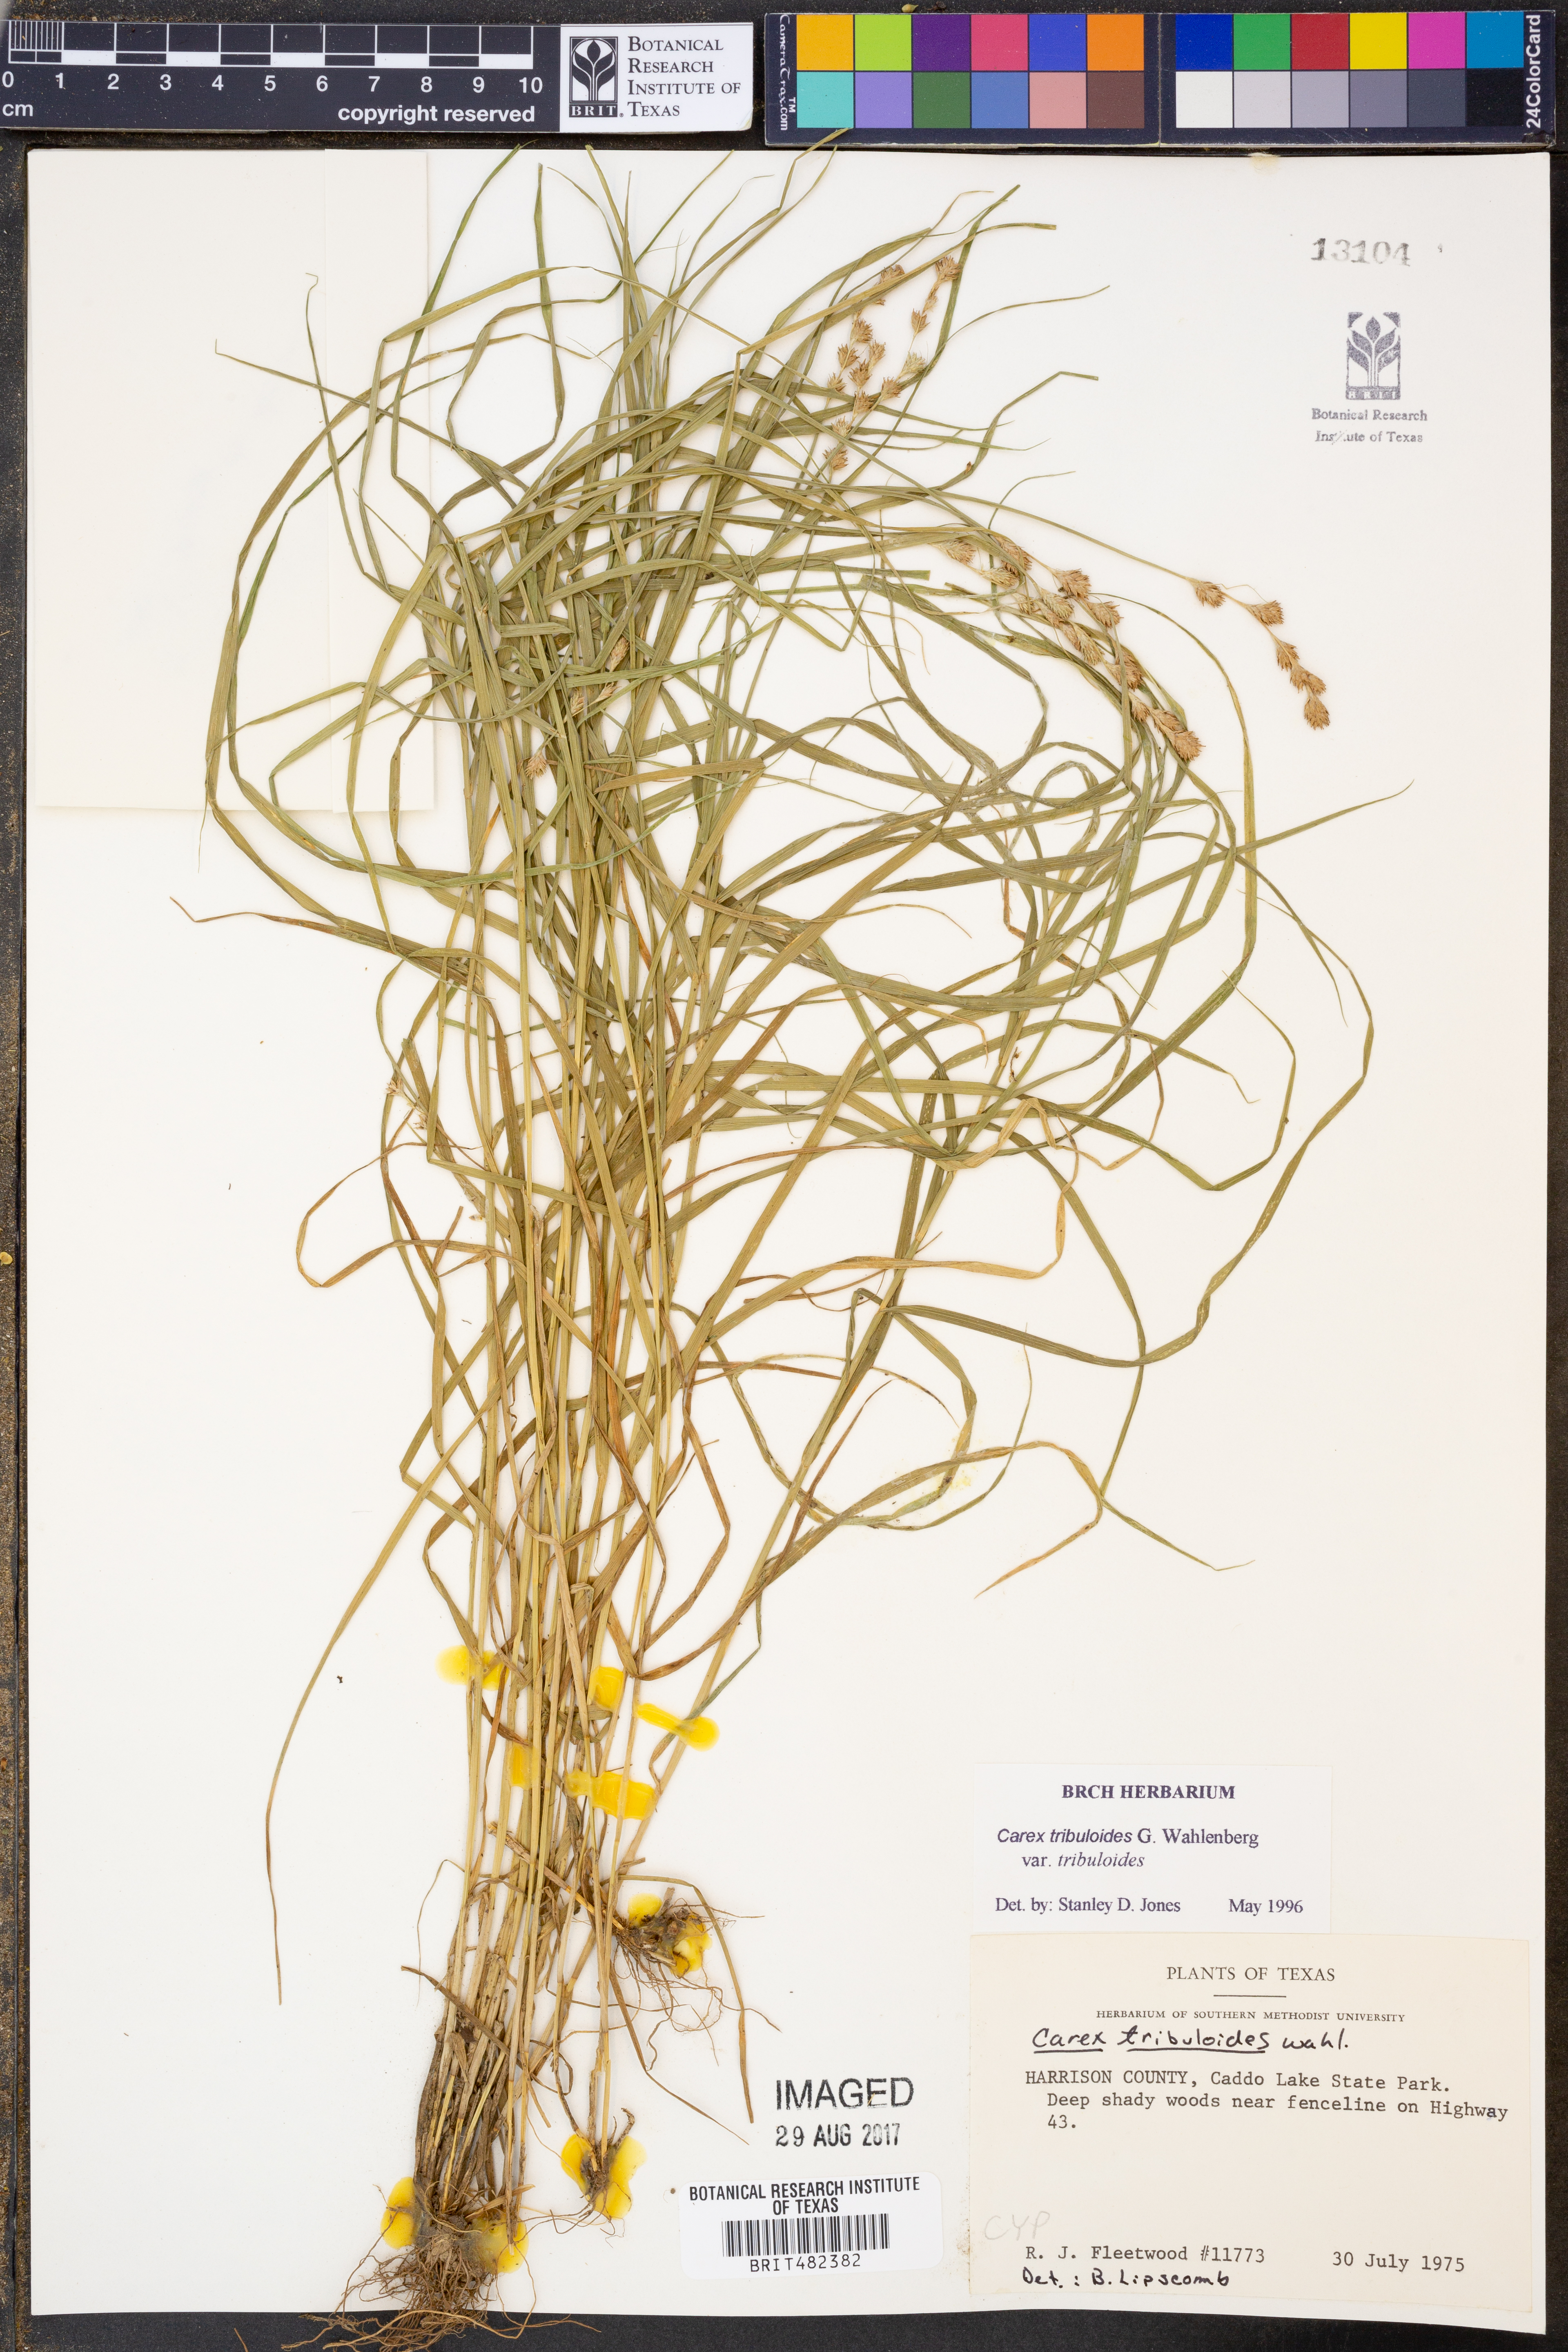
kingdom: Plantae
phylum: Tracheophyta
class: Liliopsida
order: Poales
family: Cyperaceae
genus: Carex
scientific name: Carex tribuloides
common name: Blunt broom sedge
